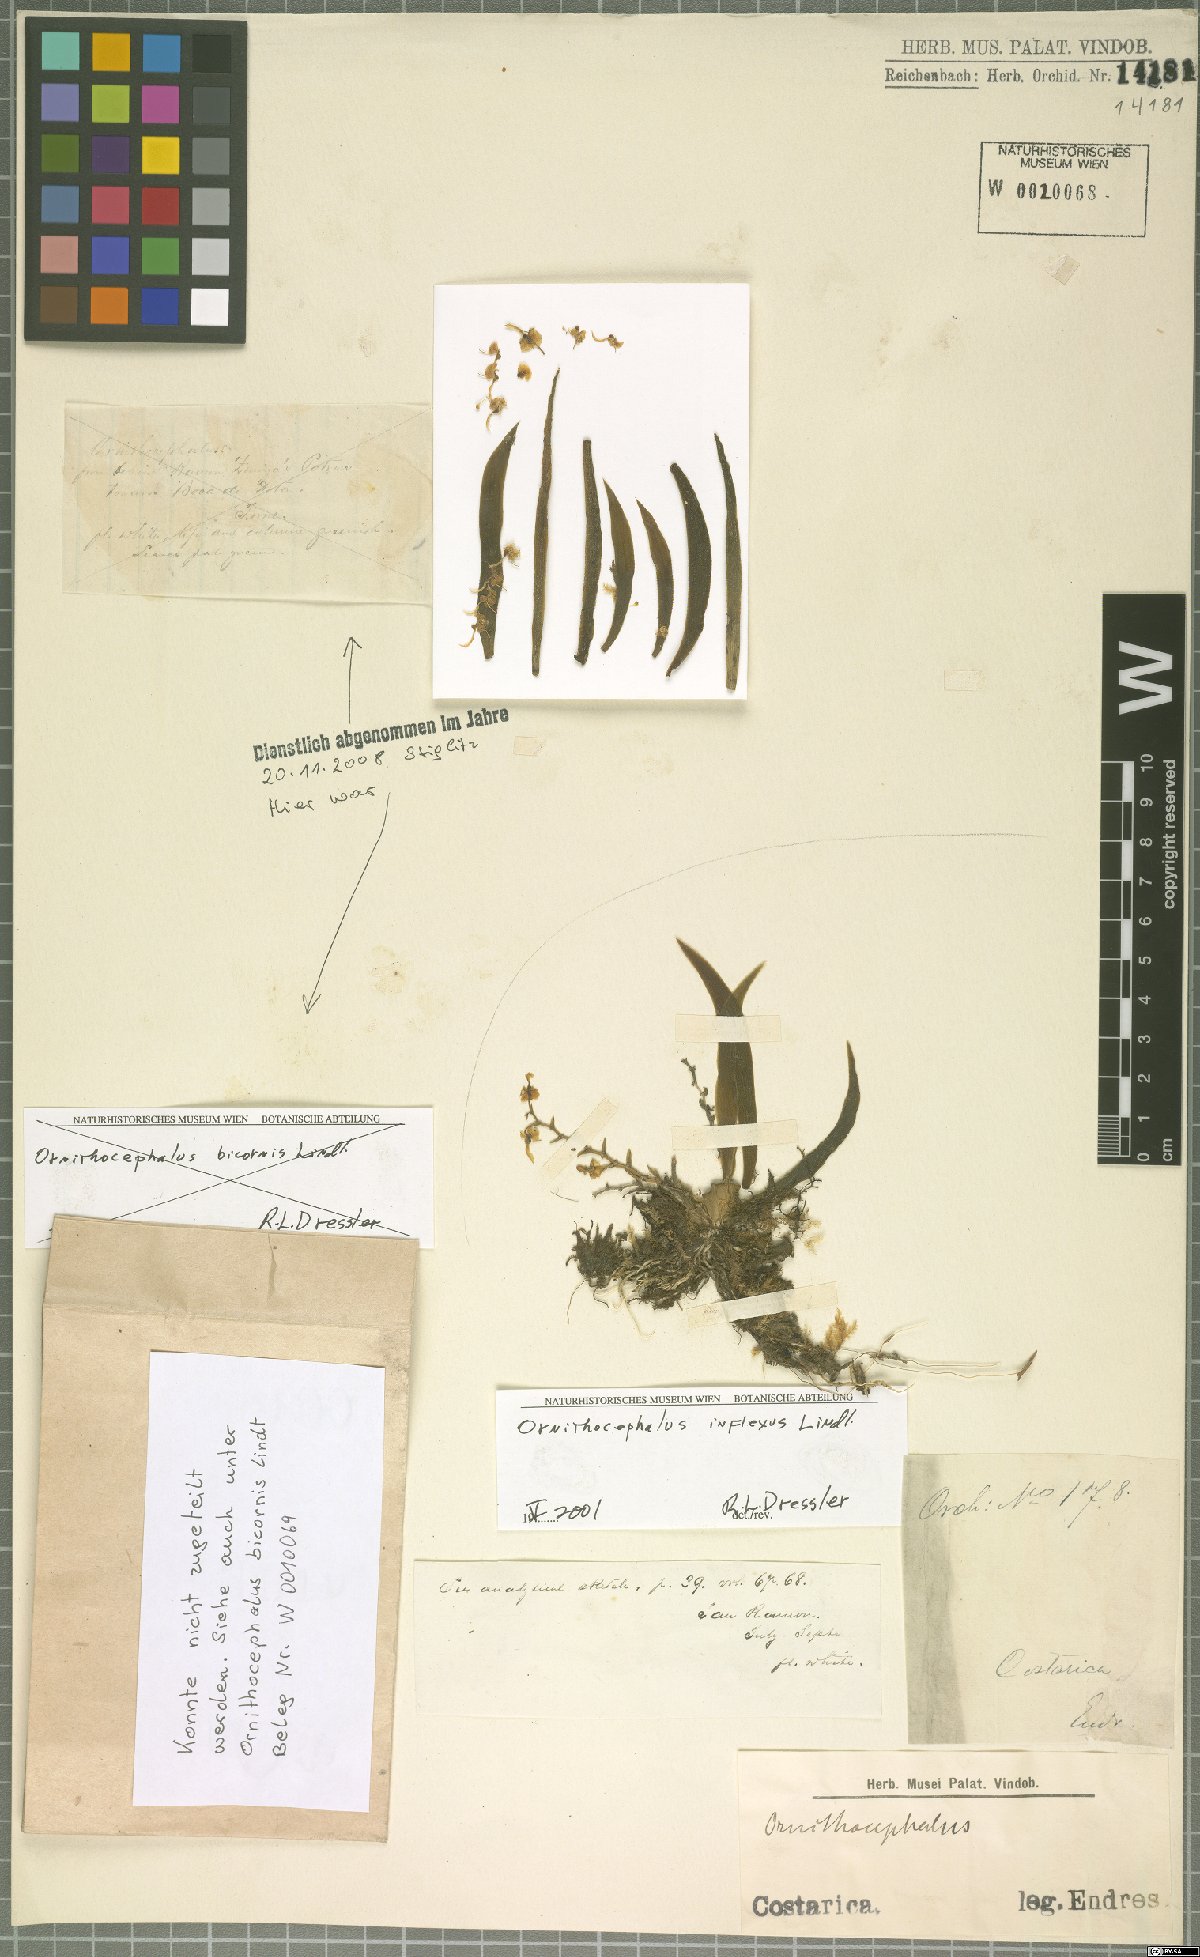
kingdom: Plantae
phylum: Tracheophyta
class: Liliopsida
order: Asparagales
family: Orchidaceae
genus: Ornithocephalus
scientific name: Ornithocephalus inflexus
